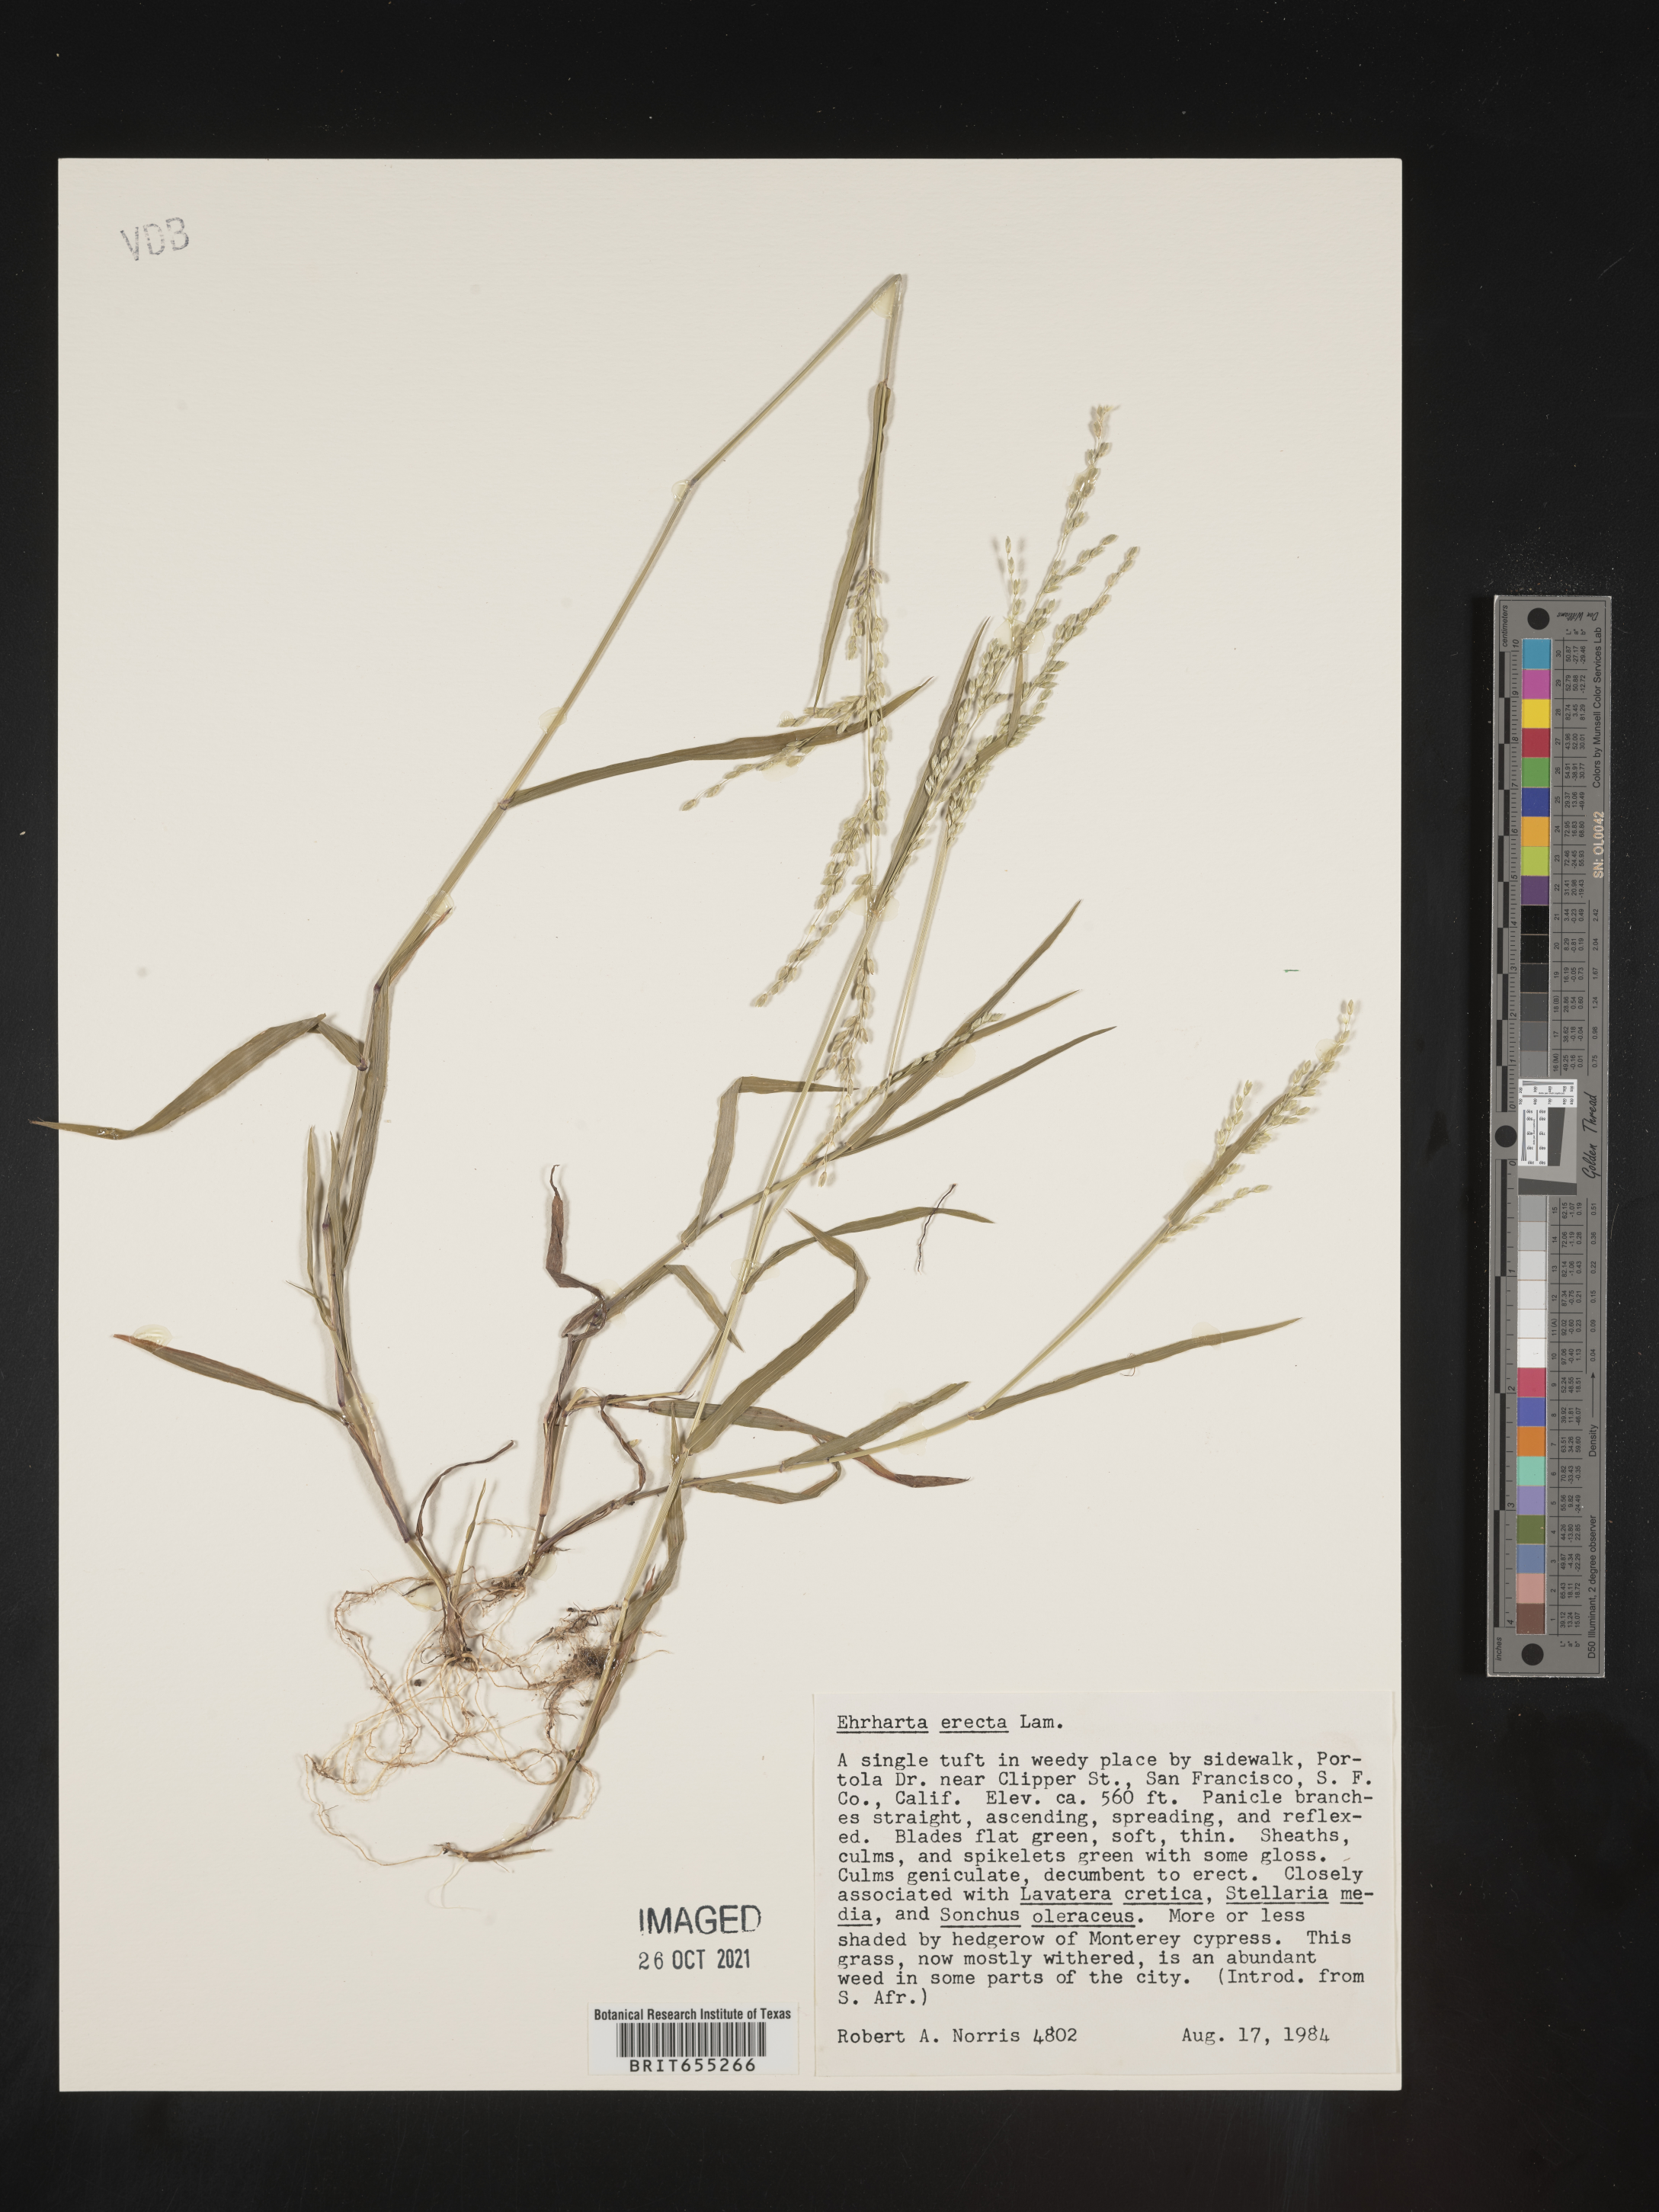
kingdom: Plantae
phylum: Tracheophyta
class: Liliopsida
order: Poales
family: Poaceae
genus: Ehrharta
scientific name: Ehrharta
